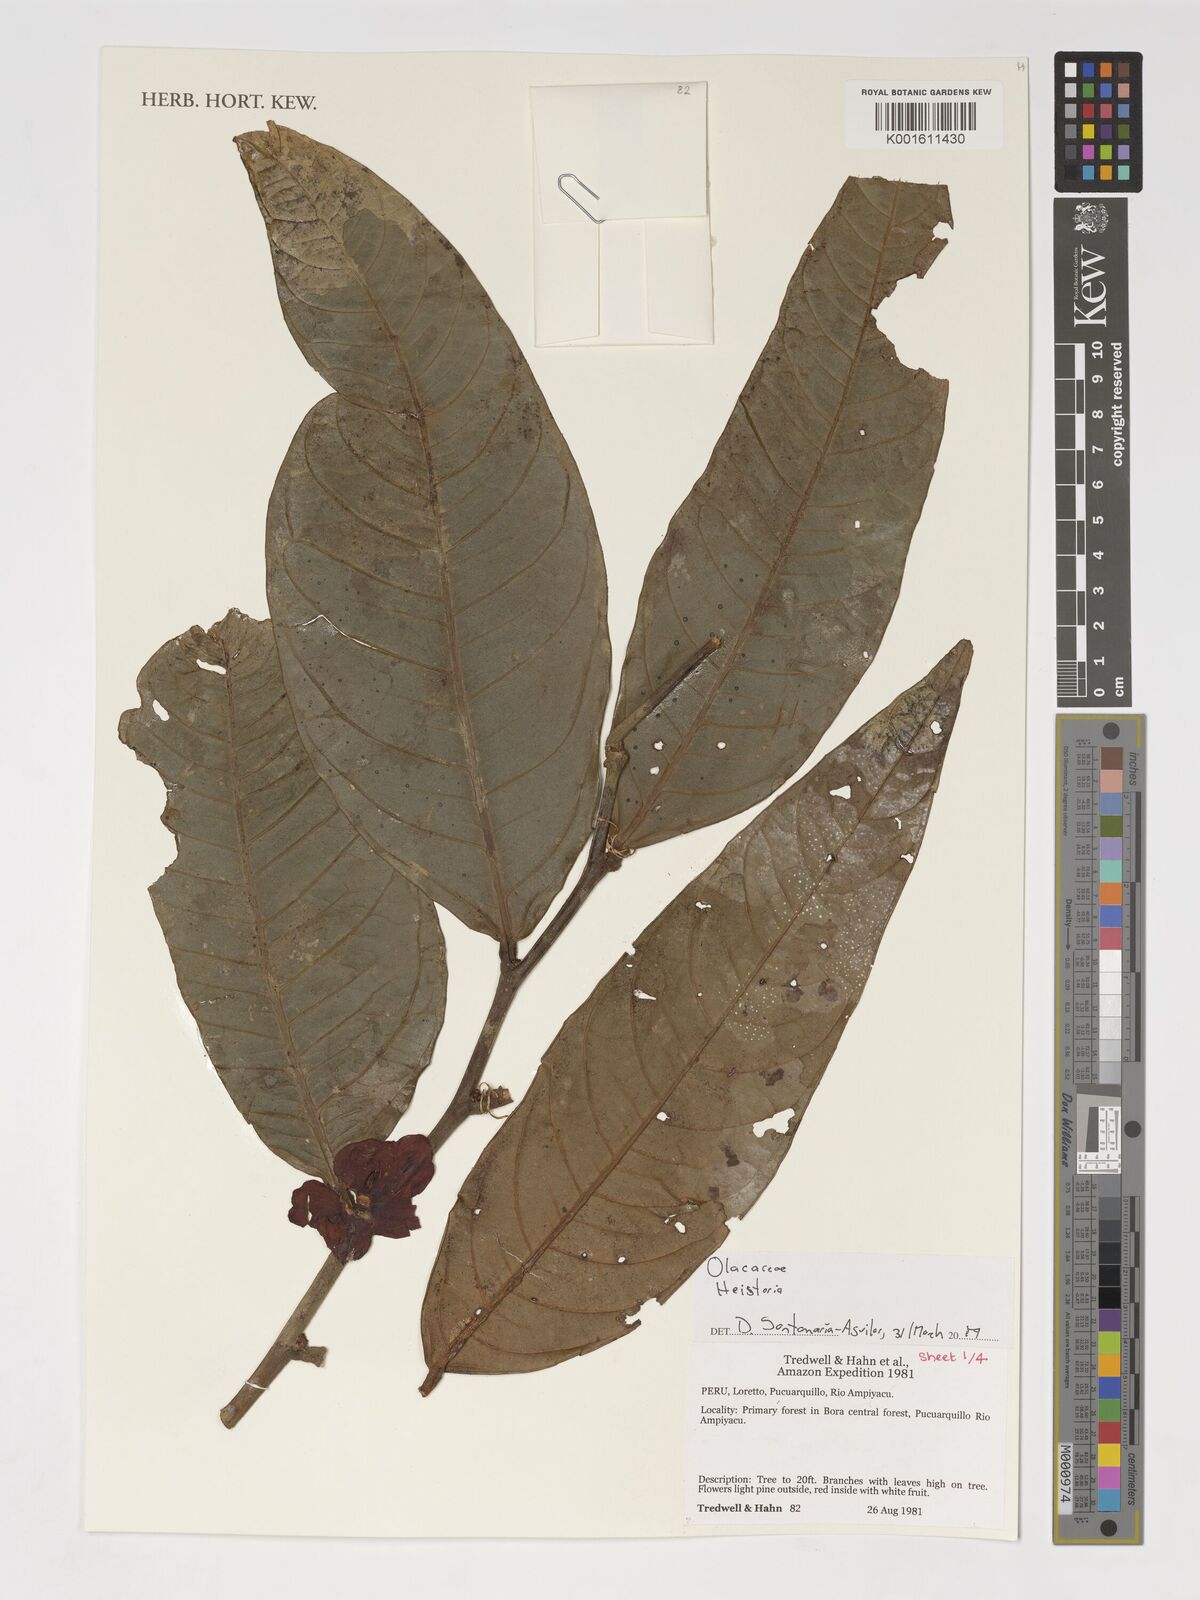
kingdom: Plantae
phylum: Tracheophyta
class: Magnoliopsida
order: Santalales
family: Erythropalaceae
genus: Heisteria
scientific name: Heisteria
